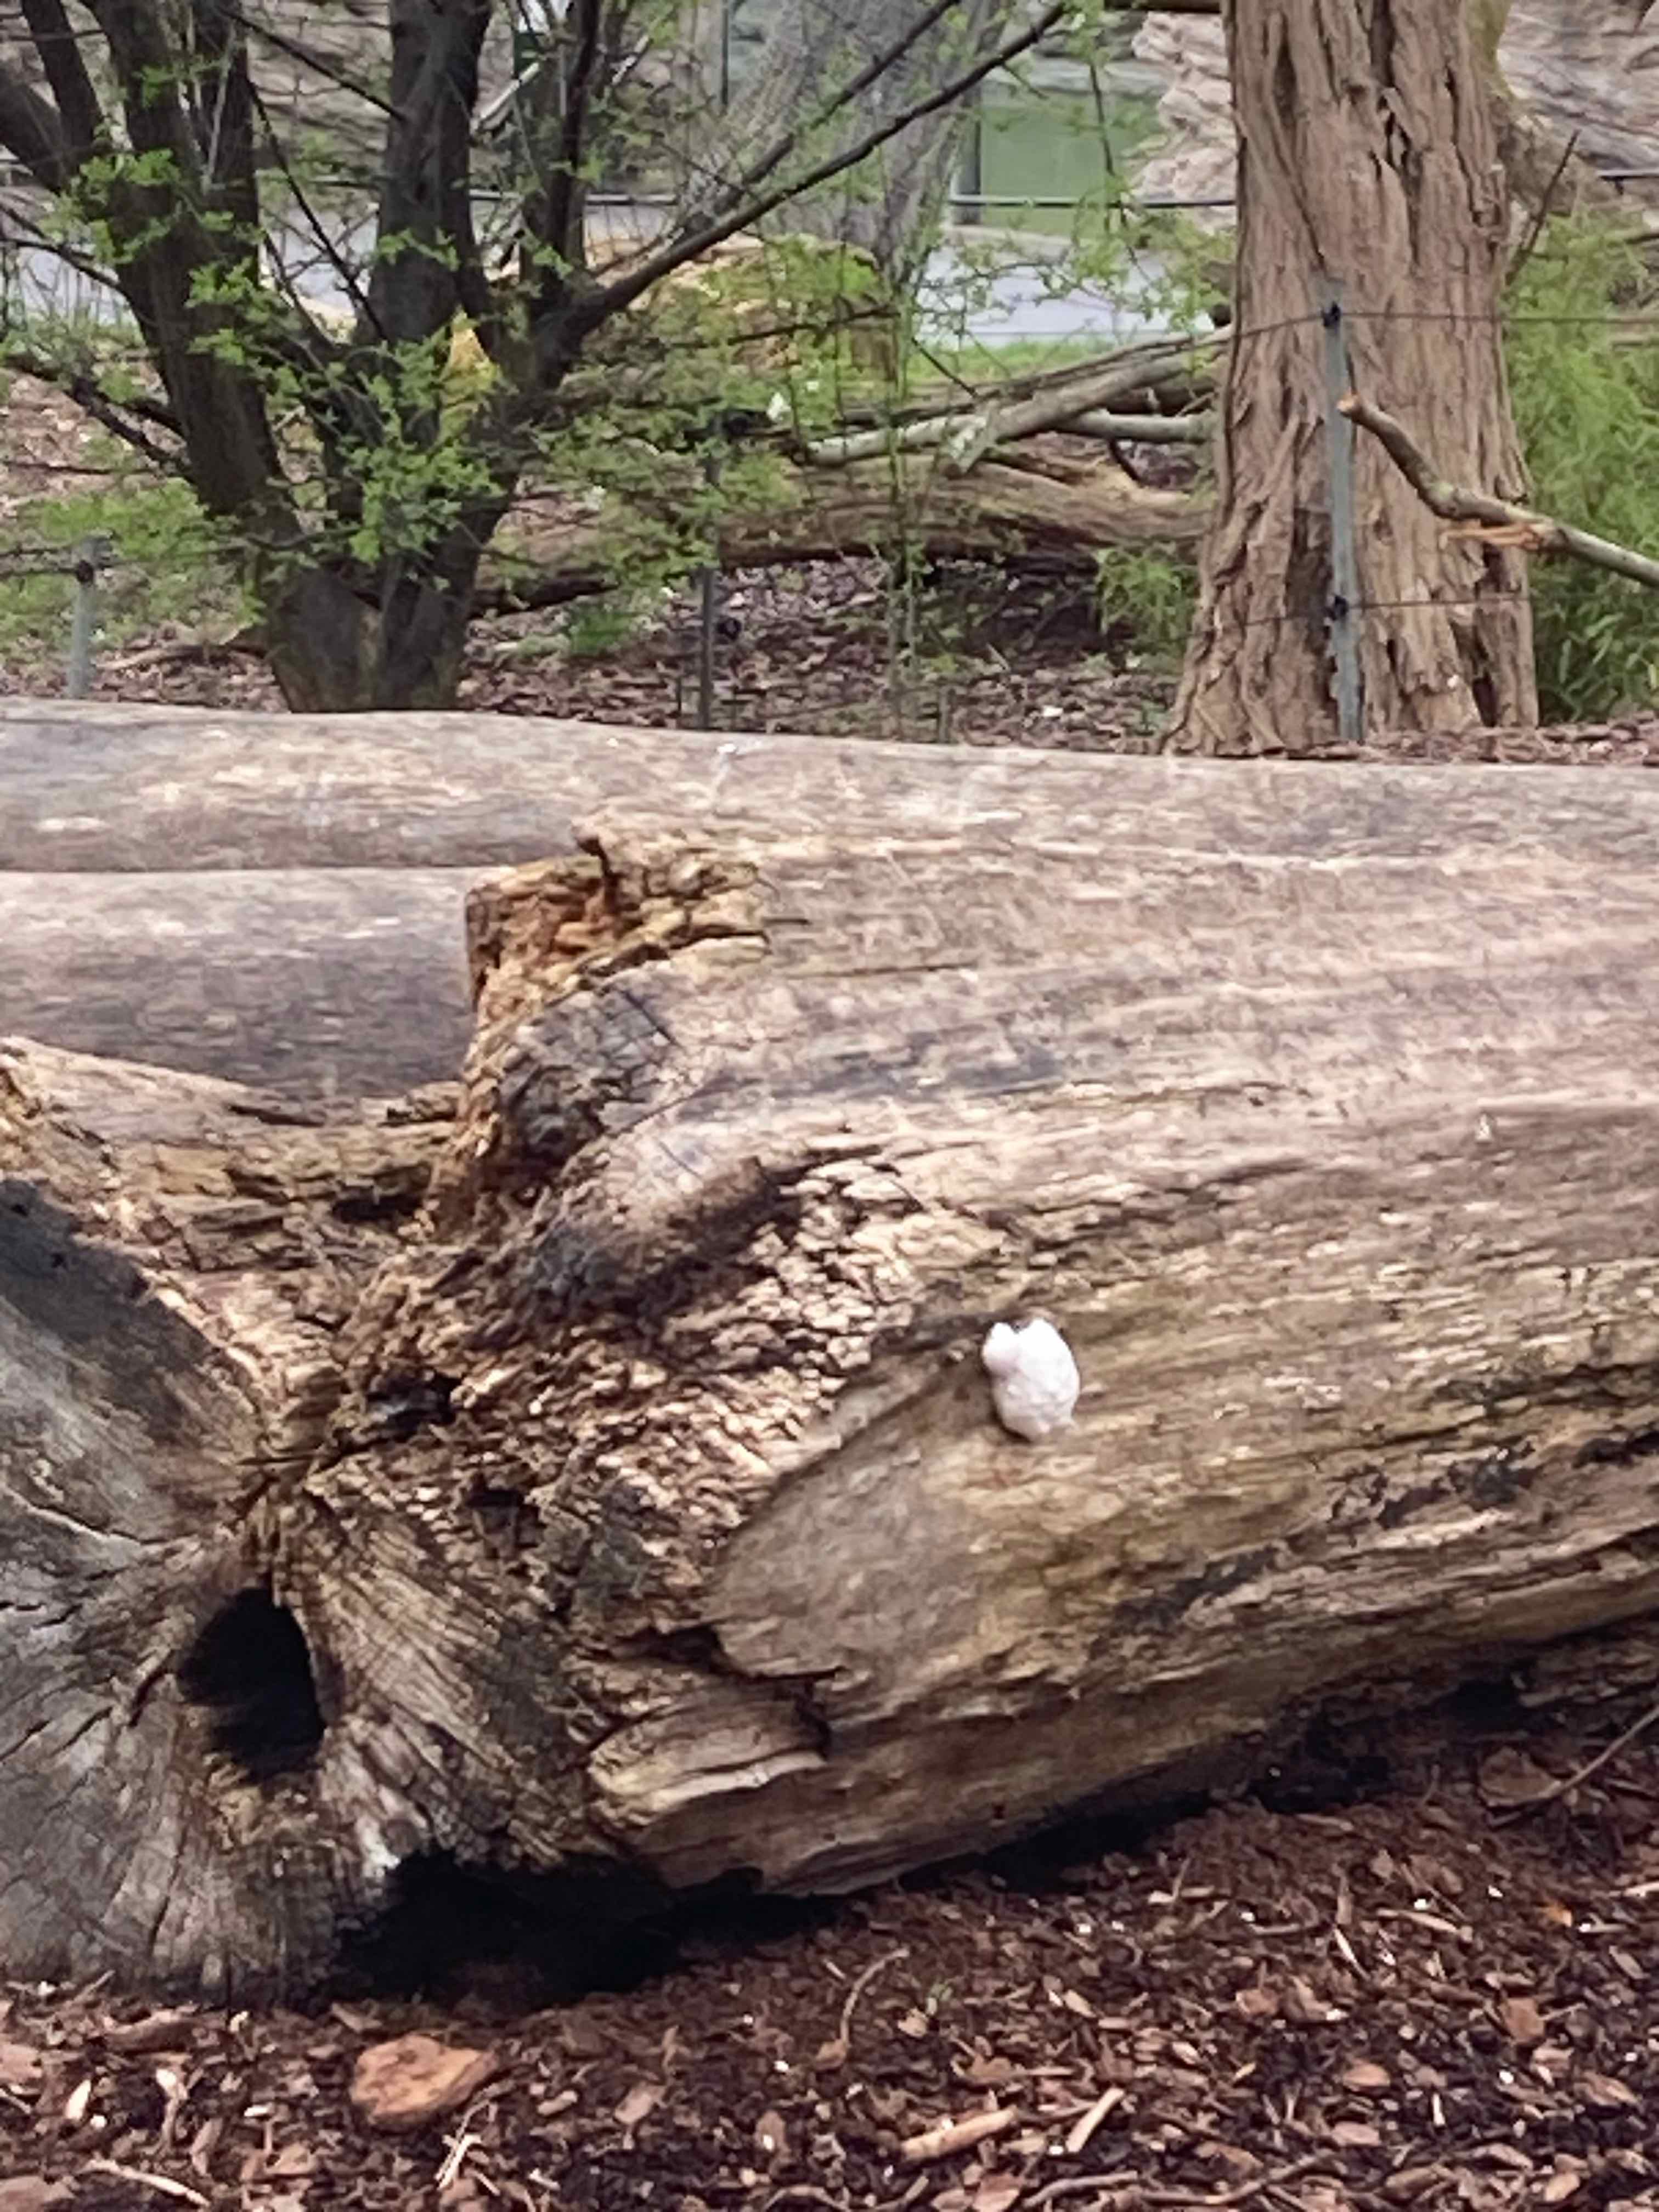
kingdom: Protozoa
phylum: Mycetozoa
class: Myxomycetes
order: Cribrariales
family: Tubiferaceae
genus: Reticularia
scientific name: Reticularia lycoperdon
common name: skinnende støvpude
